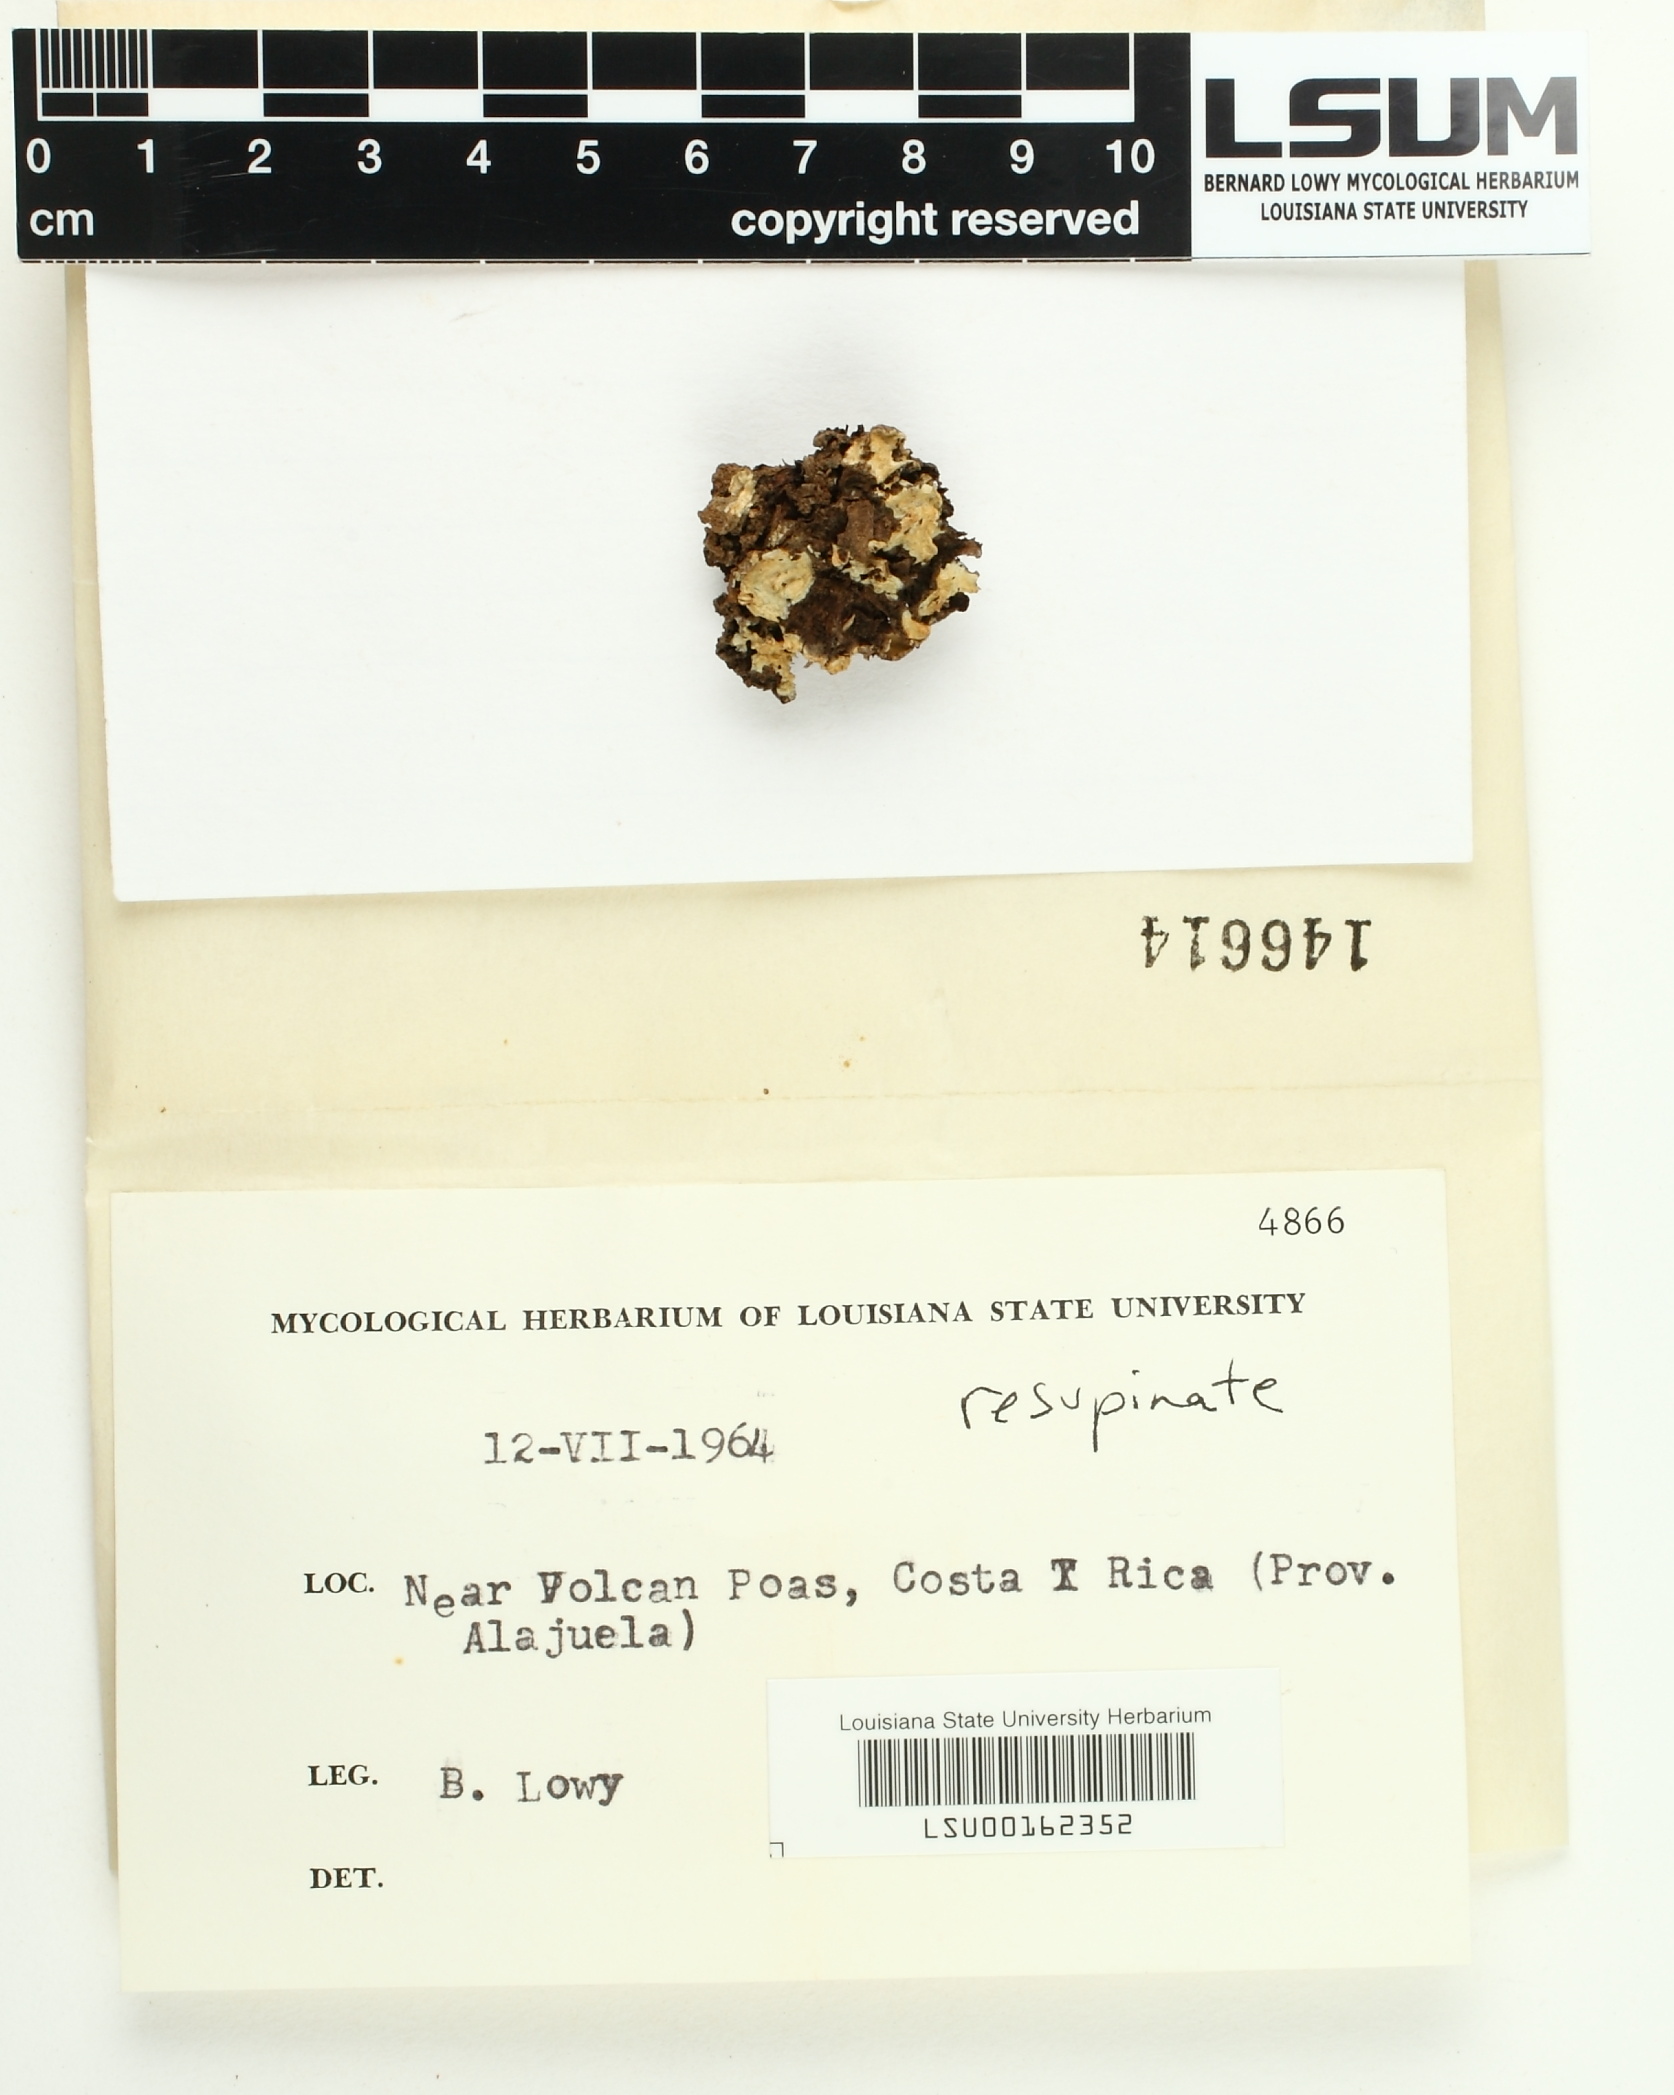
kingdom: Fungi
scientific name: Fungi
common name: Fungi
